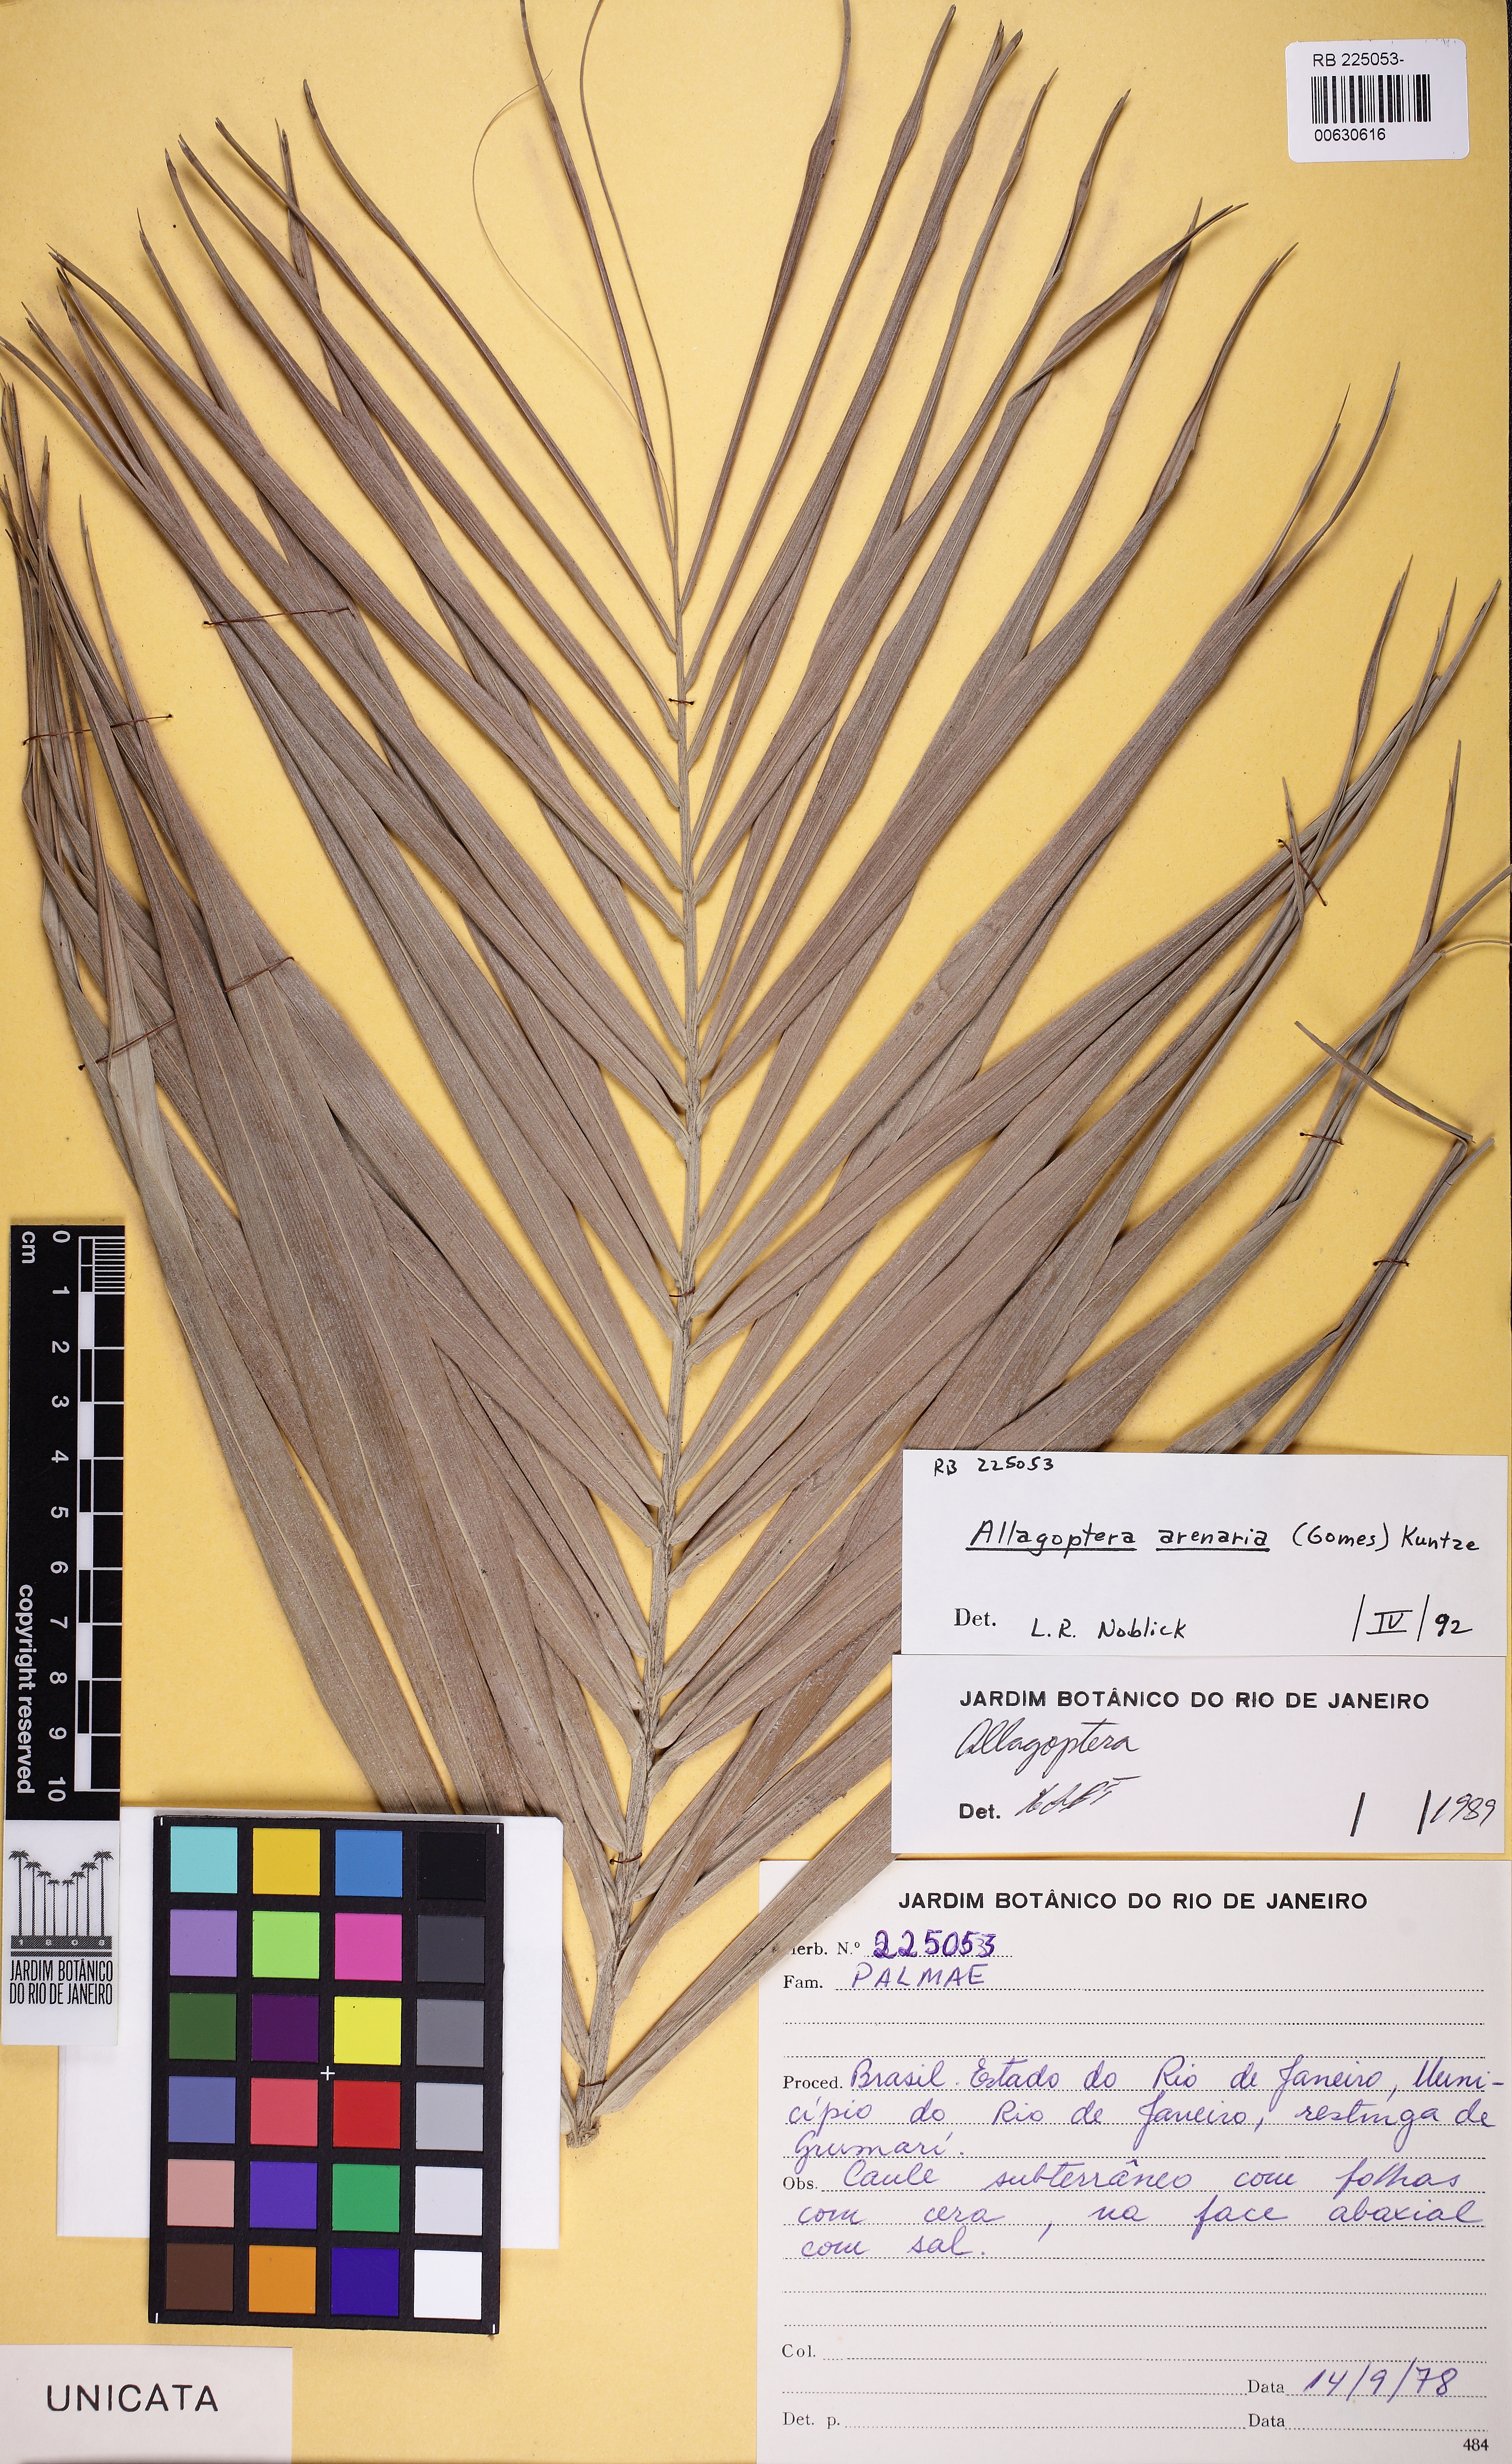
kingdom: Plantae
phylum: Tracheophyta
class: Liliopsida
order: Arecales
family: Arecaceae
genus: Allagoptera
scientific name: Allagoptera arenaria
